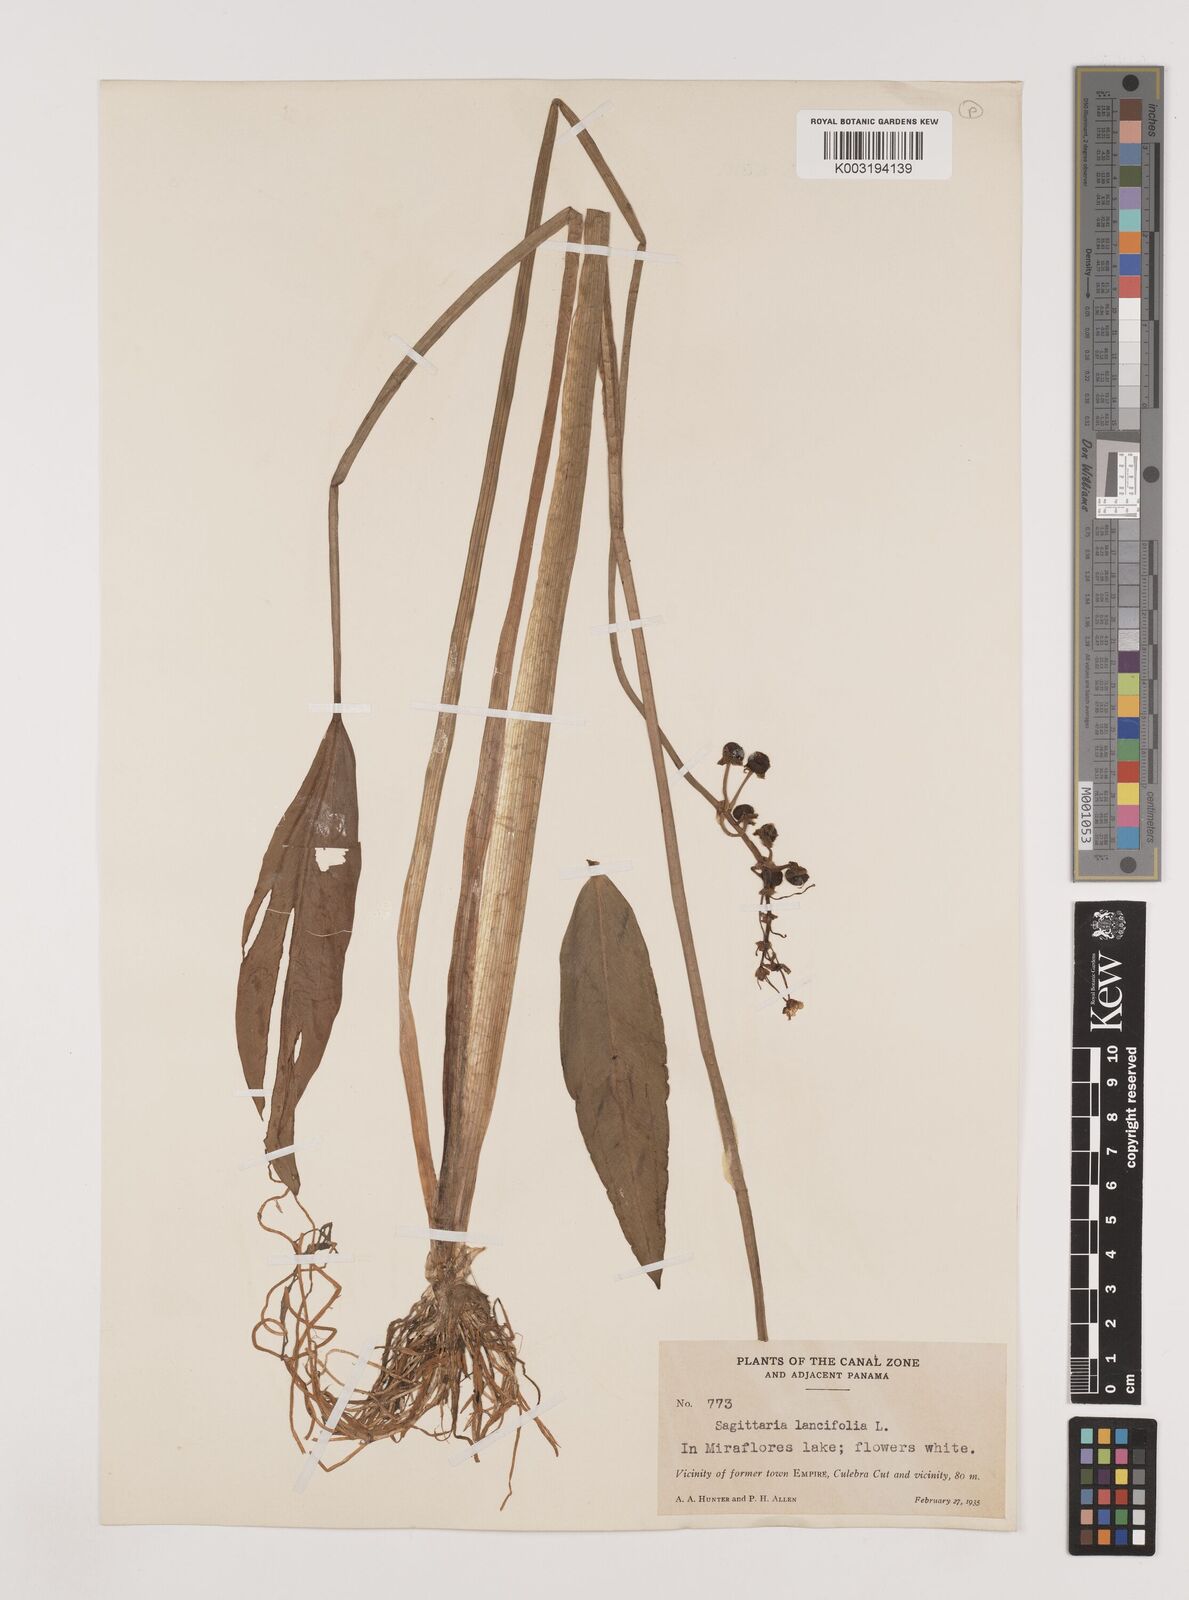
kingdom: Plantae
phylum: Tracheophyta
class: Liliopsida
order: Alismatales
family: Alismataceae
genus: Sagittaria
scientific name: Sagittaria lancifolia
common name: Lance-leaf arrowhead
